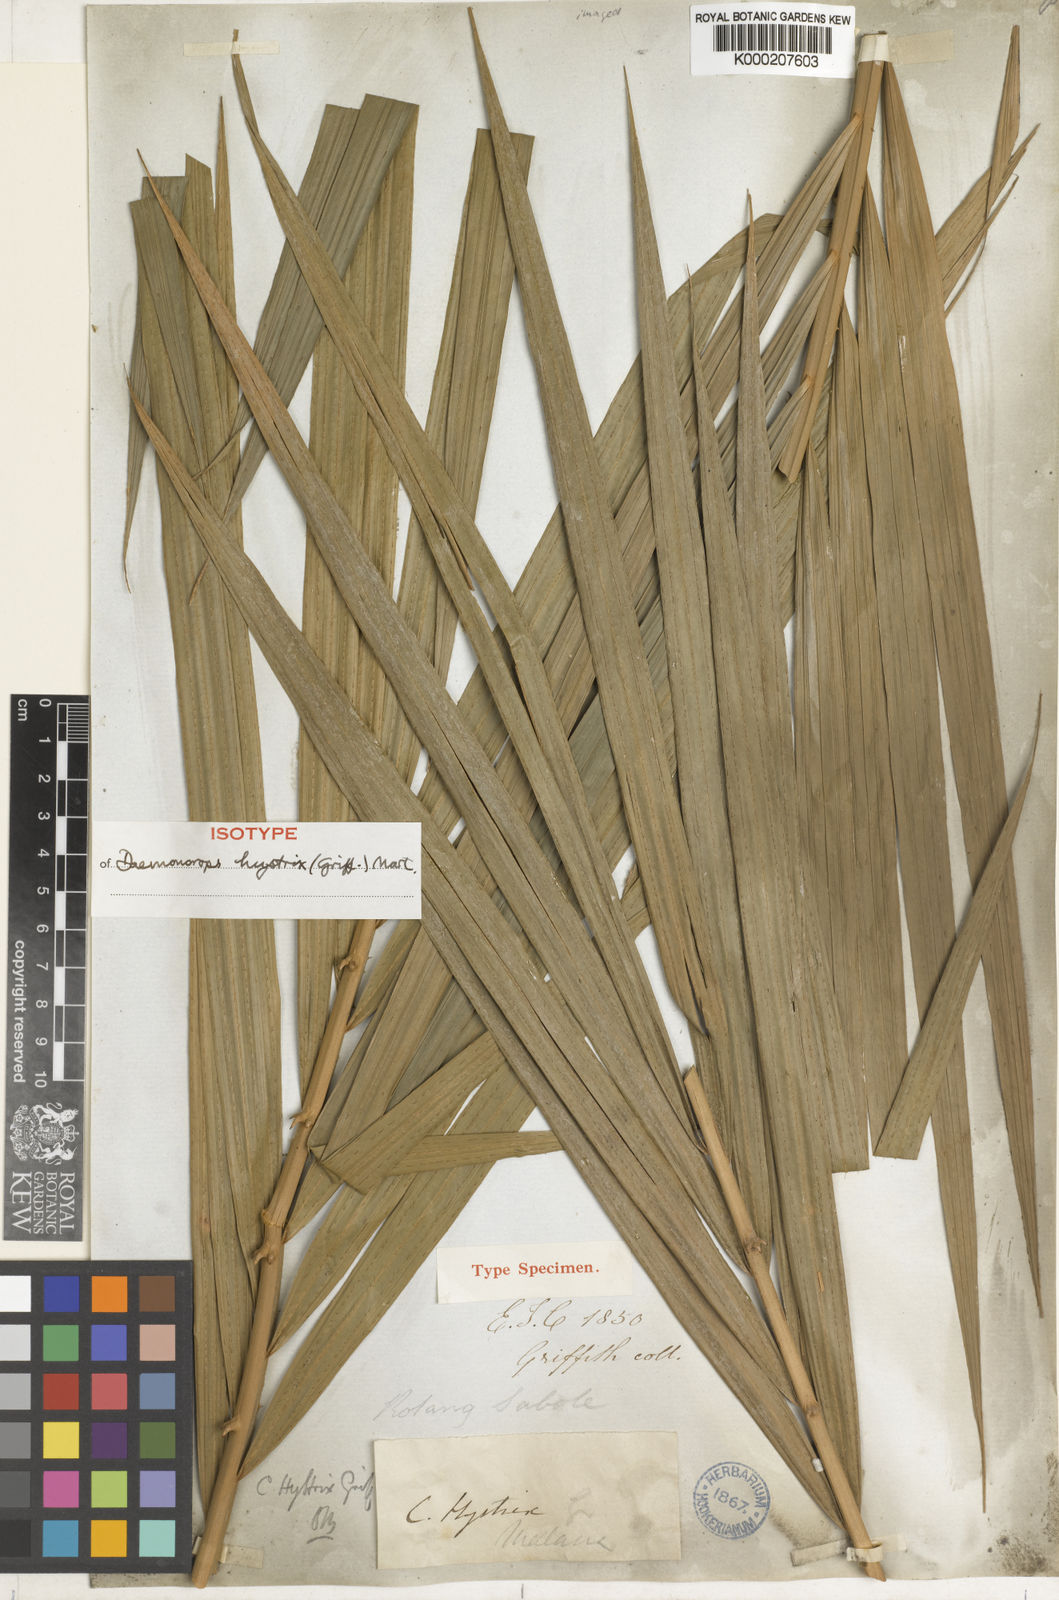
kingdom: Plantae
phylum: Tracheophyta
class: Liliopsida
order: Arecales
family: Arecaceae
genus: Calamus
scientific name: Calamus hirsutus
